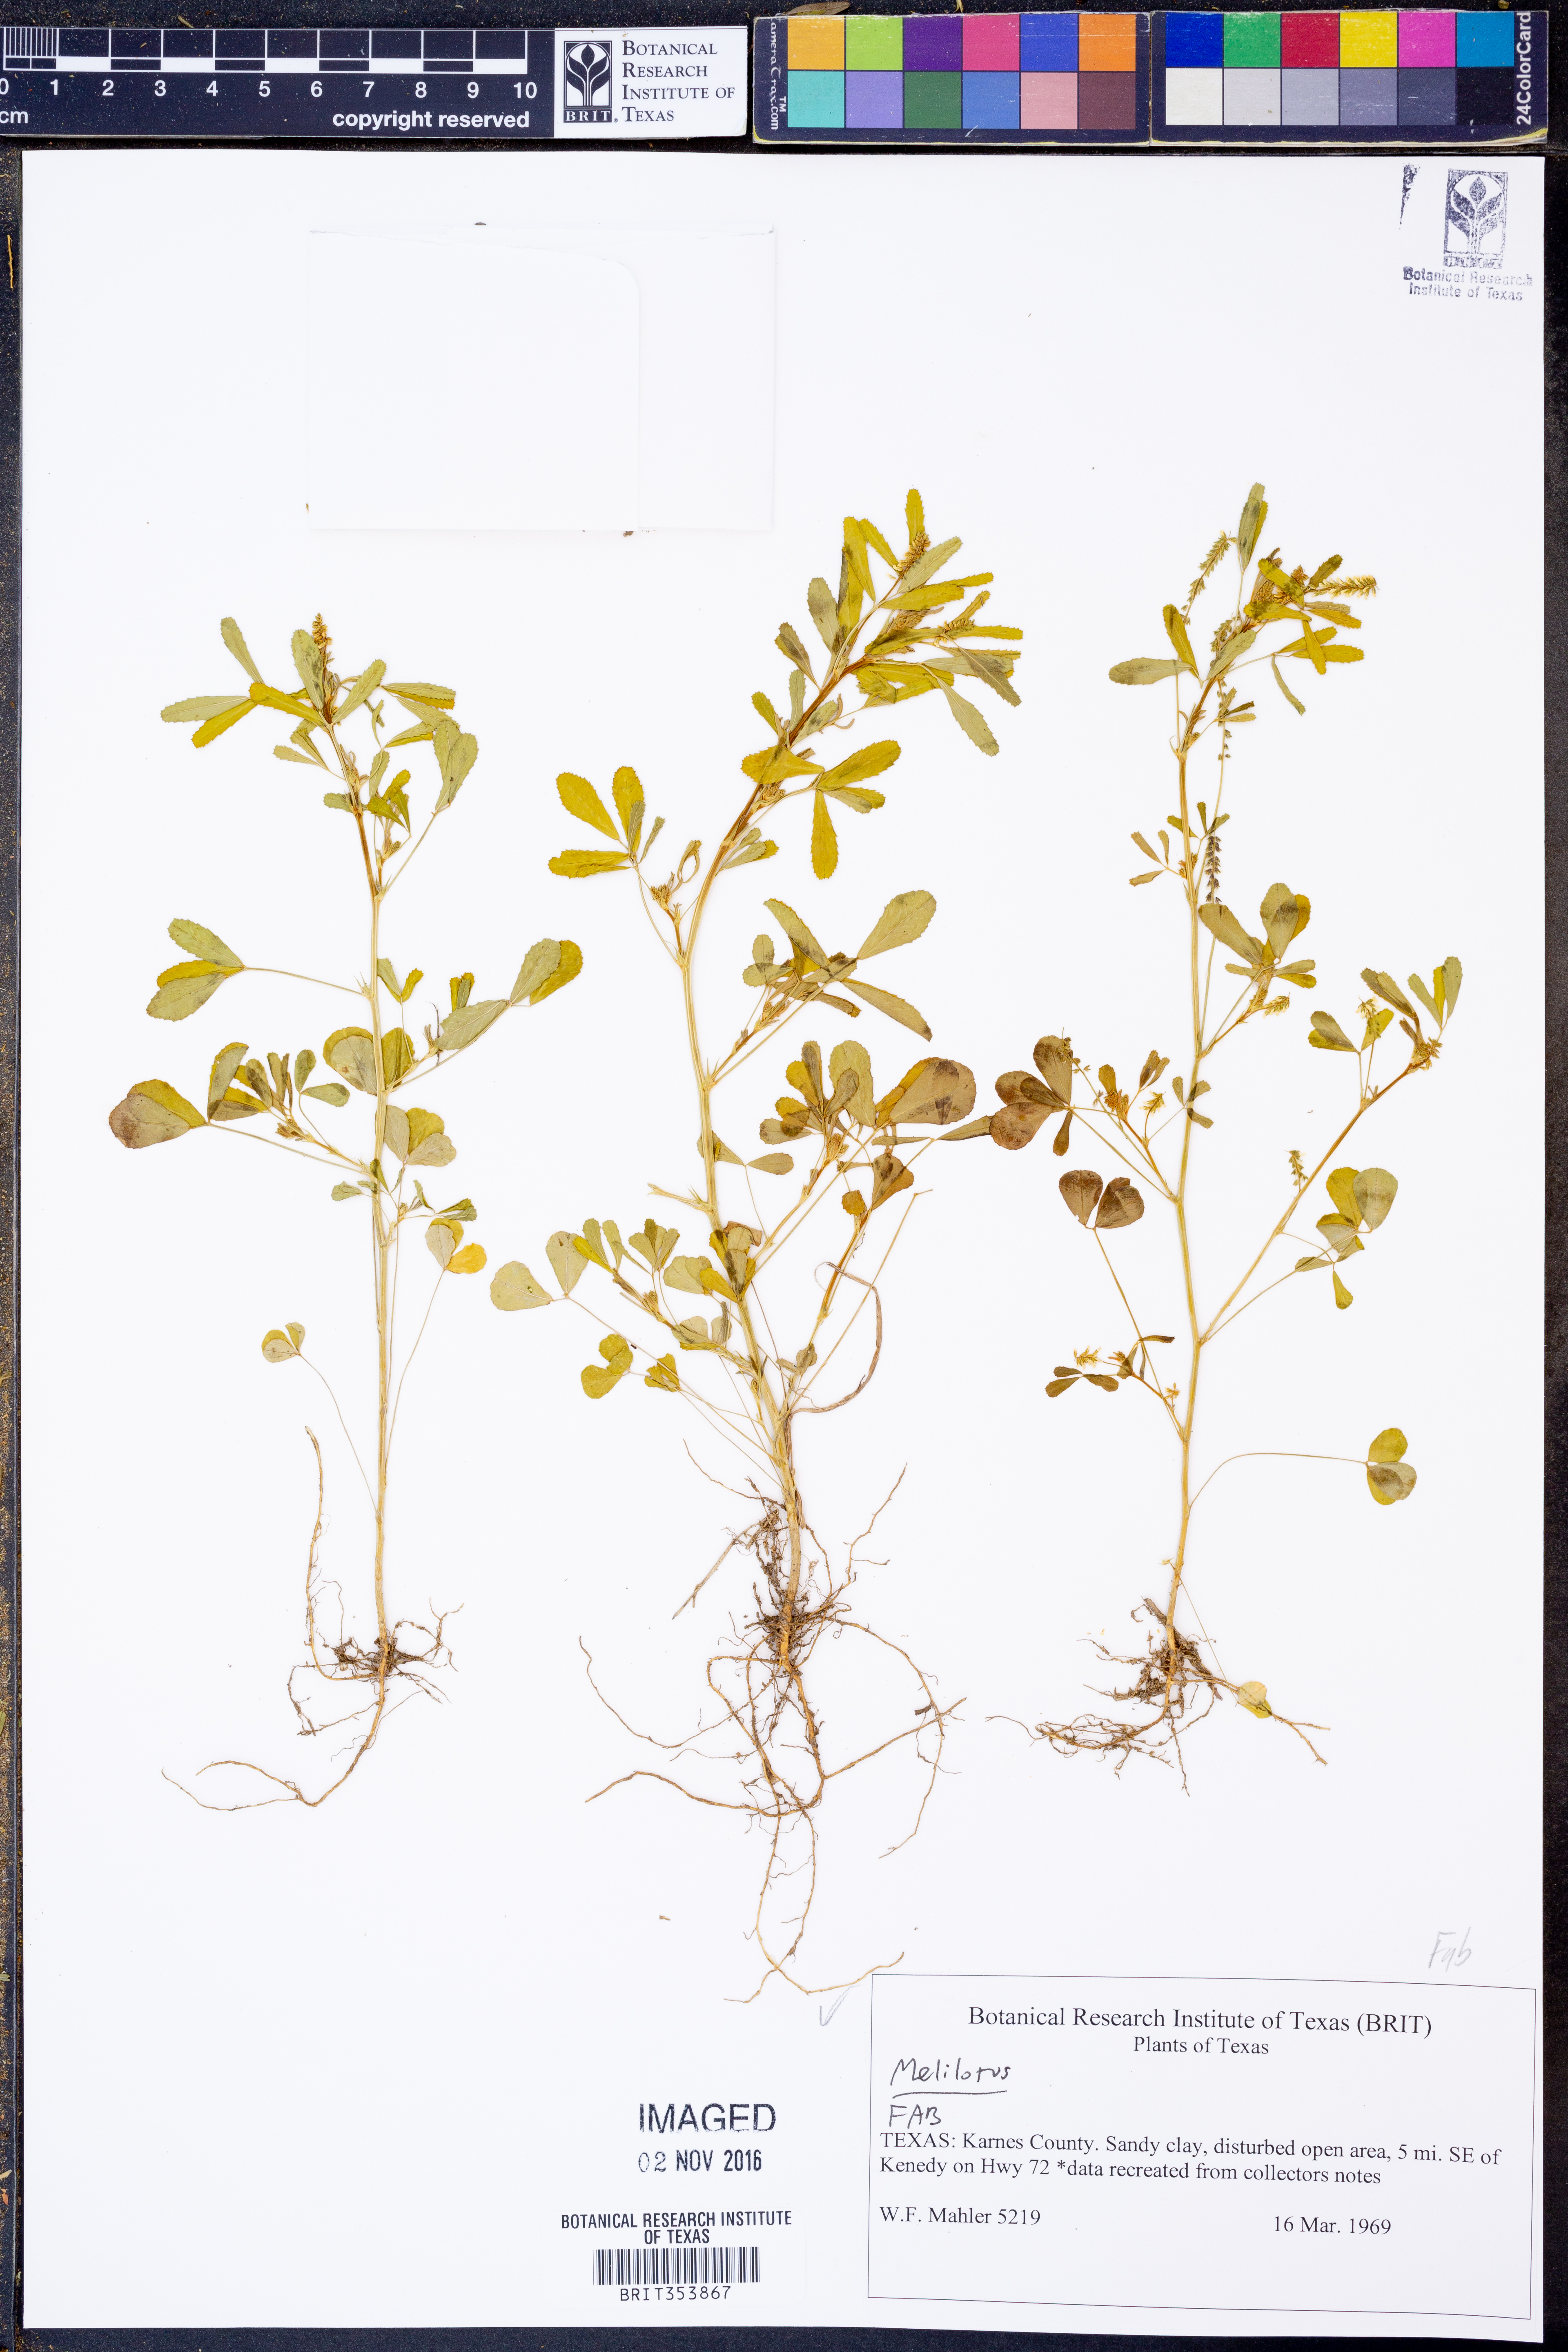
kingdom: Plantae
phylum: Tracheophyta
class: Magnoliopsida
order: Fabales
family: Fabaceae
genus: Melilotus
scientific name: Melilotus
